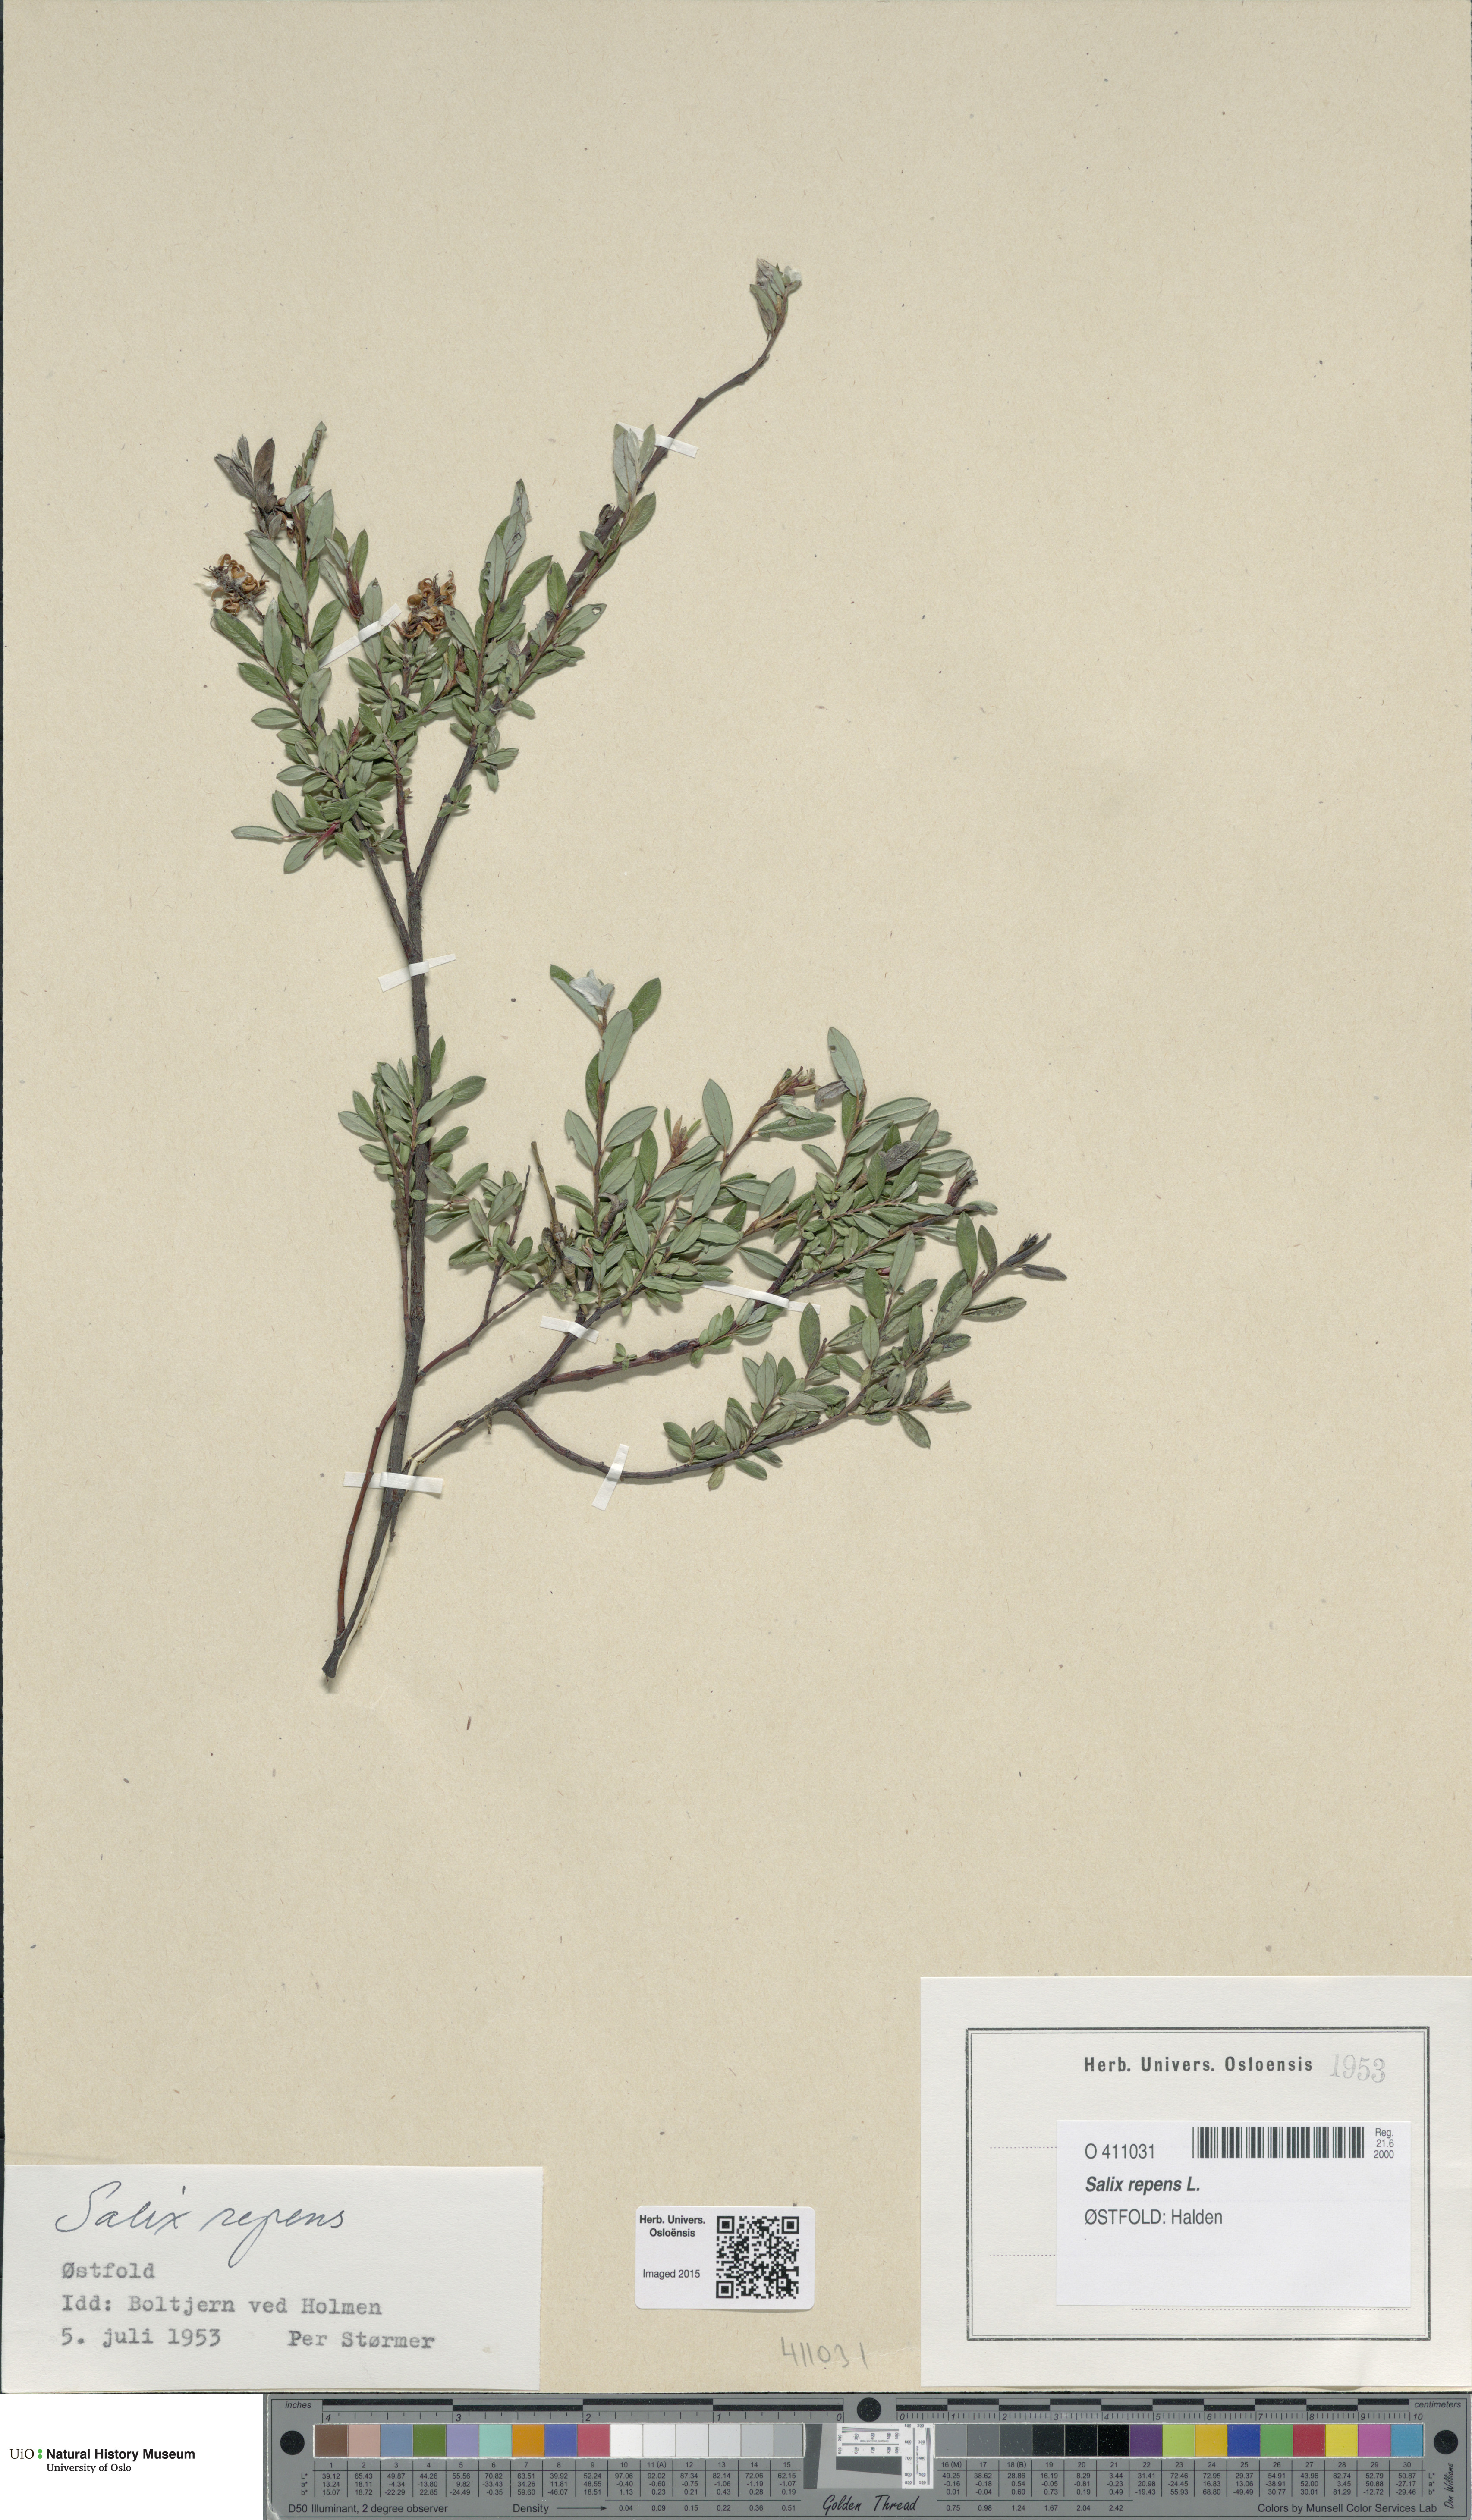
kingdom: Plantae
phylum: Tracheophyta
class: Magnoliopsida
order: Malpighiales
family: Salicaceae
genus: Salix
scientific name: Salix repens
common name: Creeping willow
